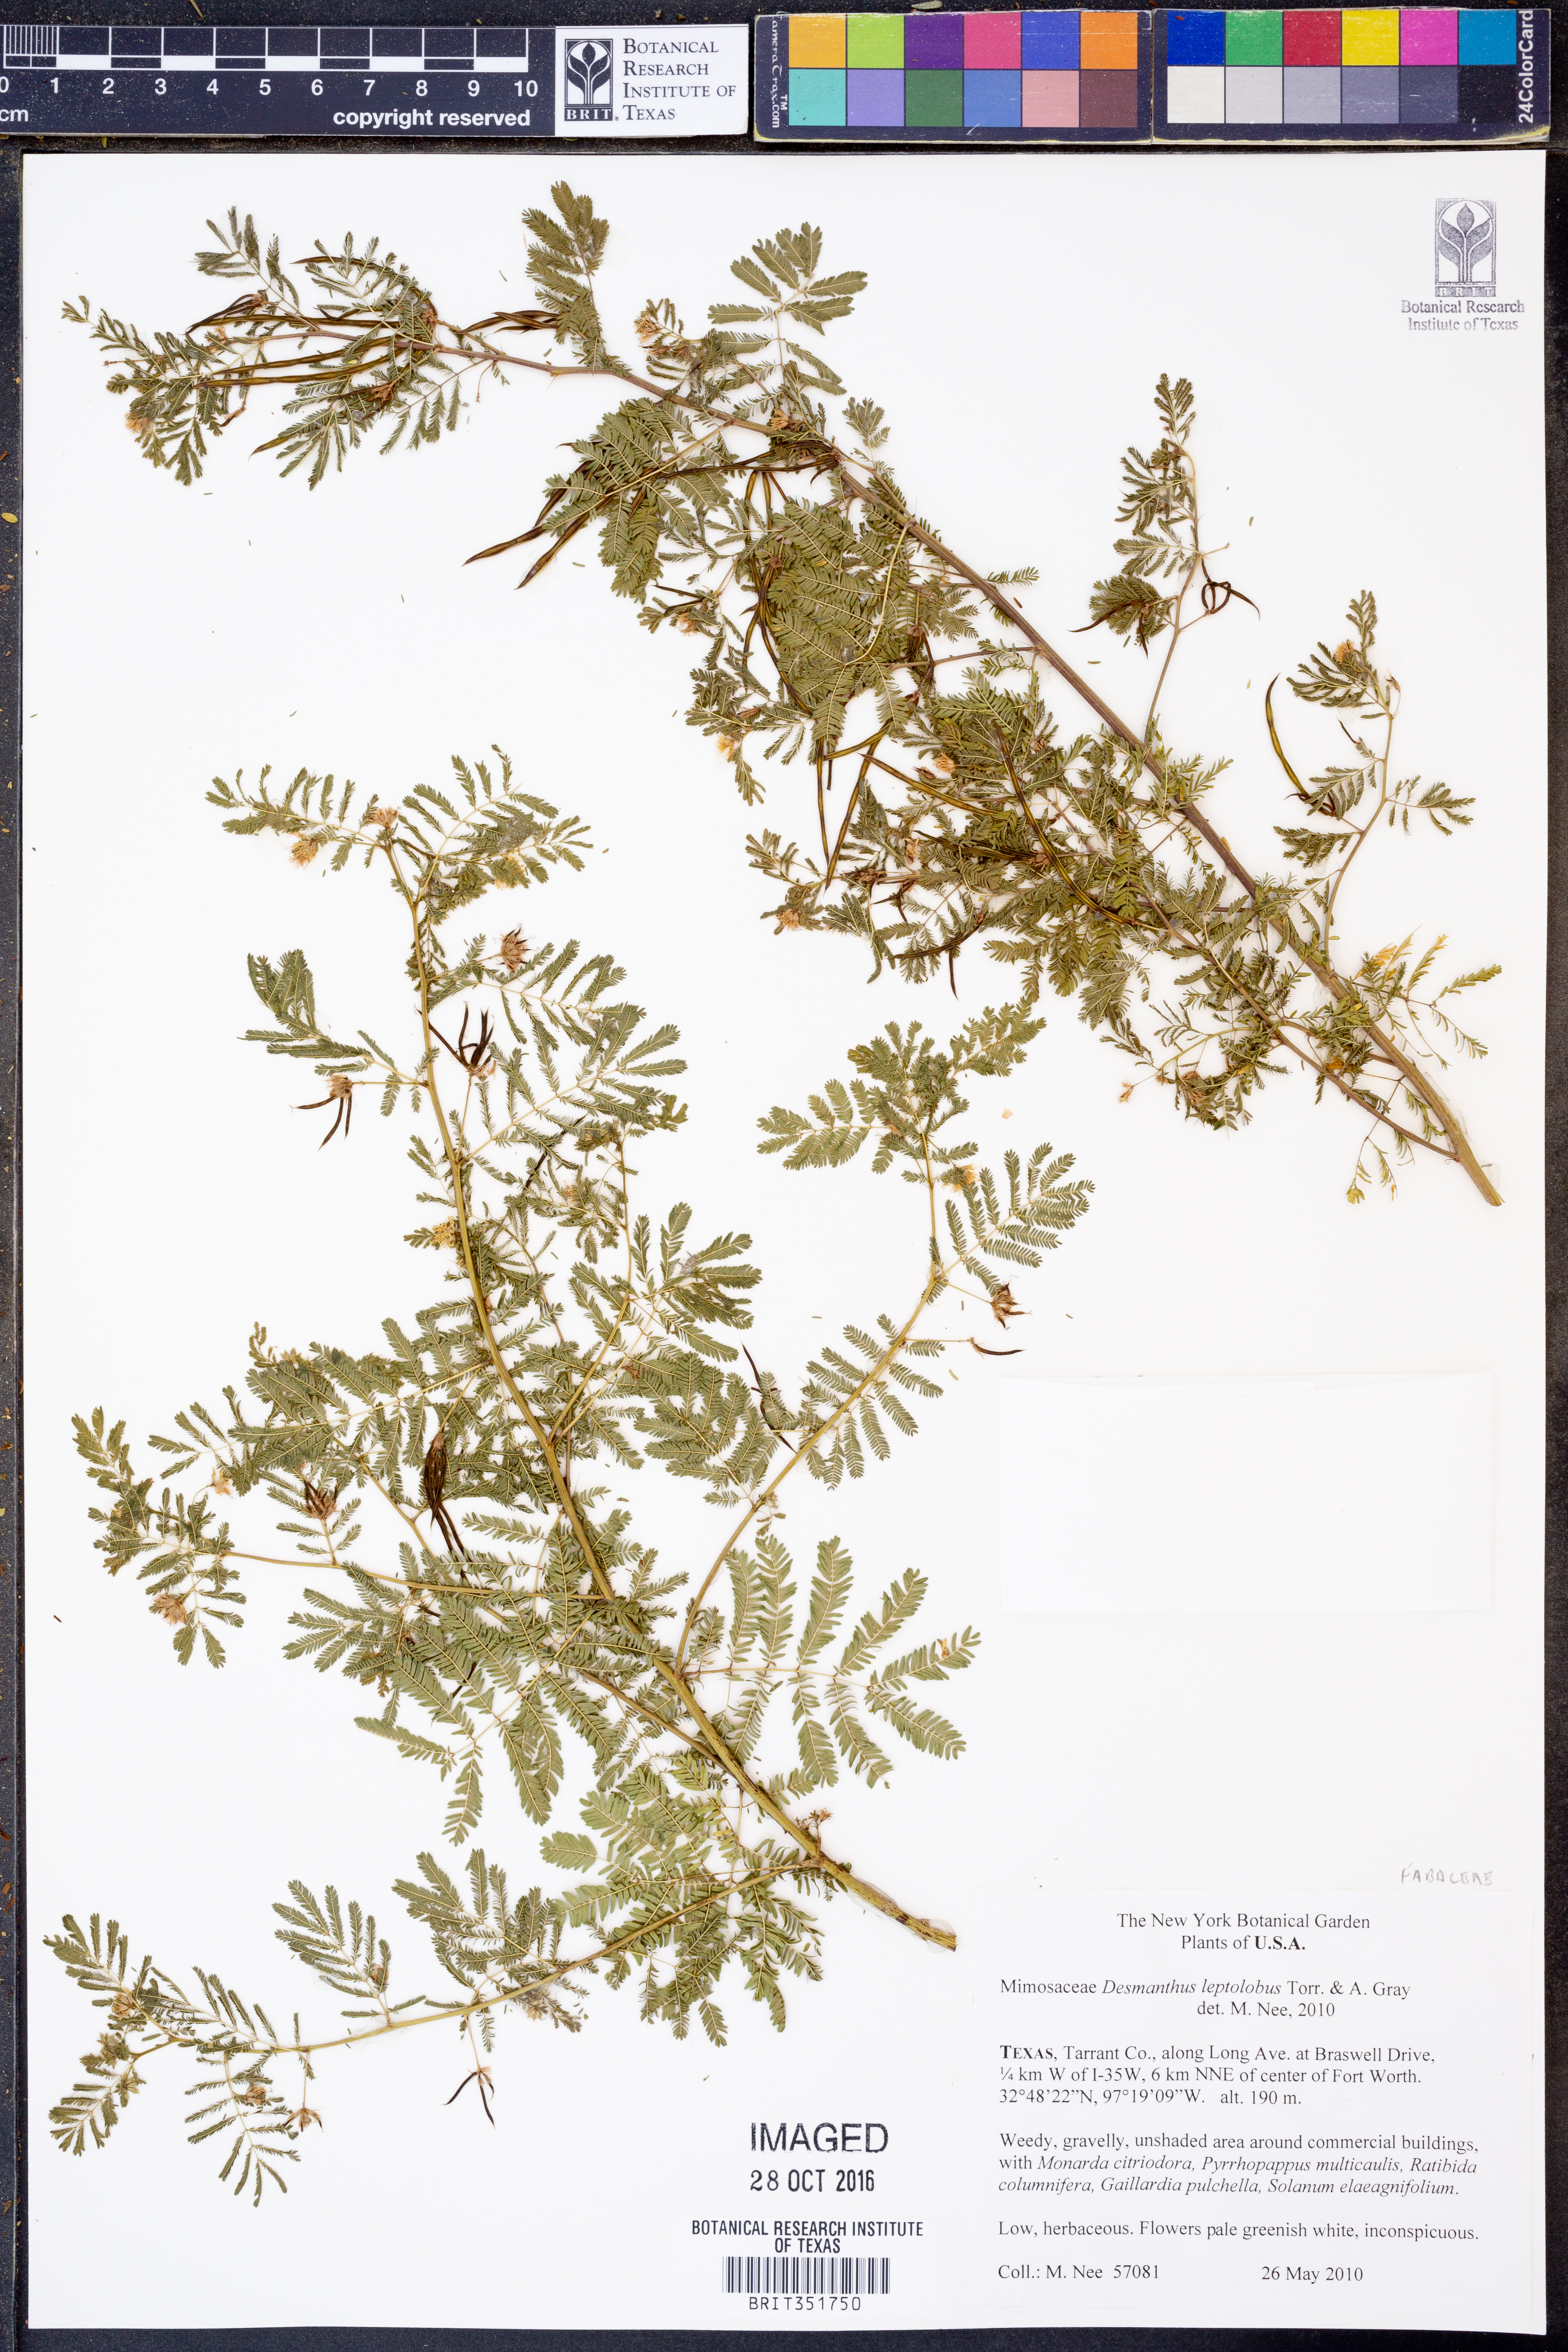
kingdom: Plantae
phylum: Tracheophyta
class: Magnoliopsida
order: Fabales
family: Fabaceae
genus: Desmanthus
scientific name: Desmanthus leptolobus
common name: Prairie-mimosa
